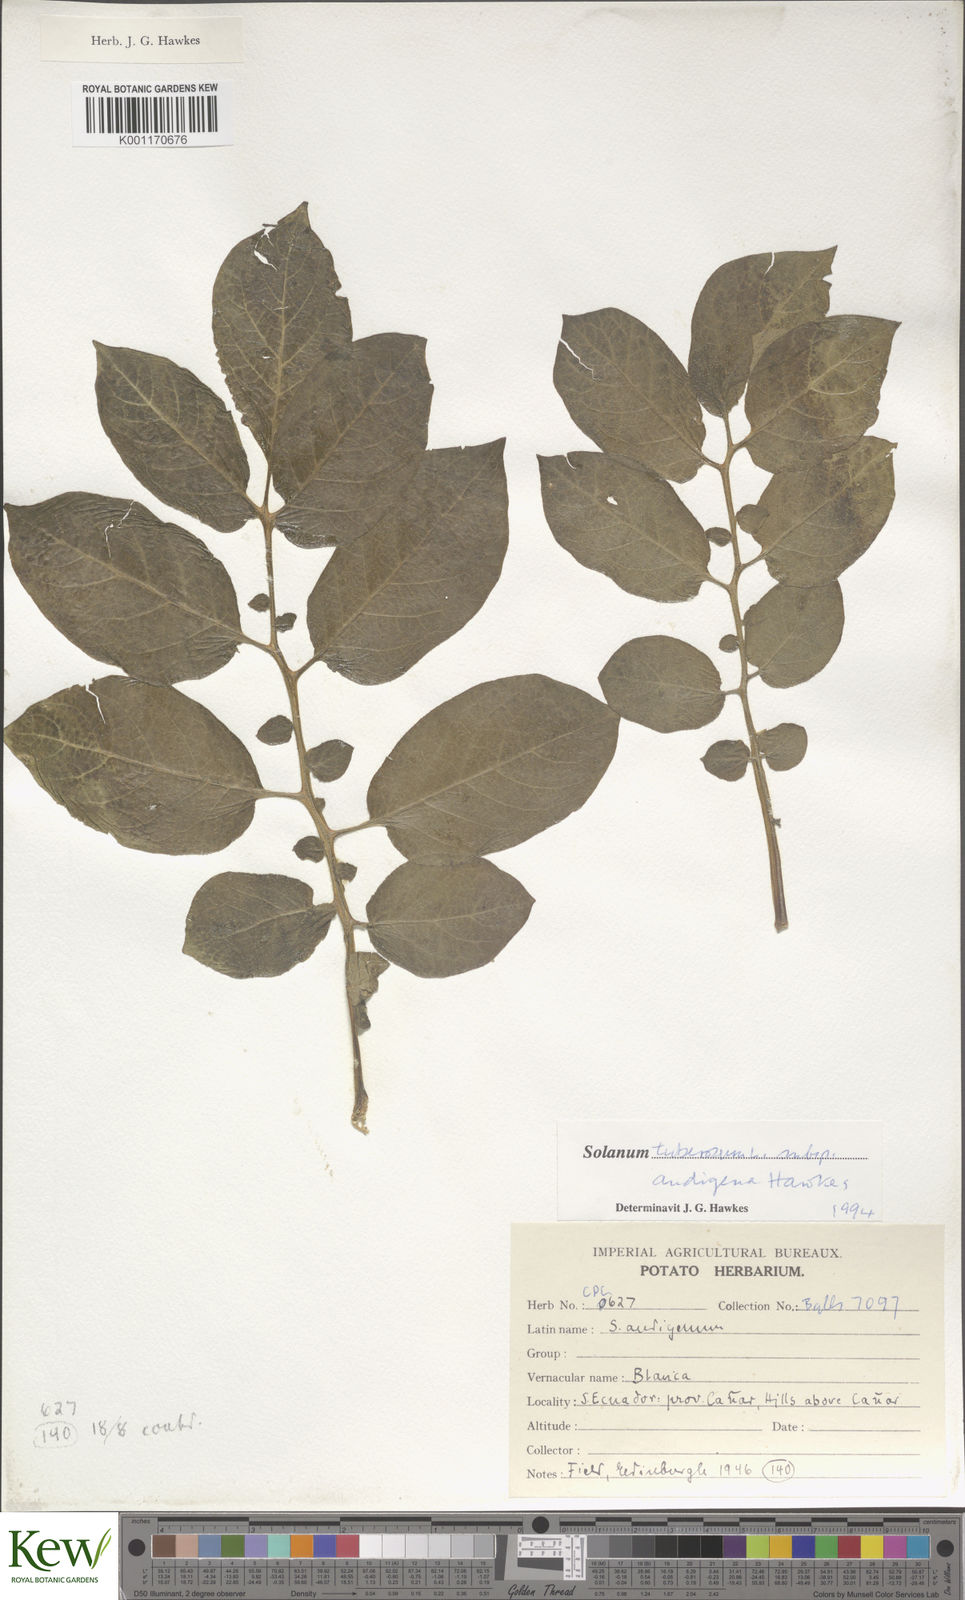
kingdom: Plantae
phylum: Tracheophyta
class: Magnoliopsida
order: Solanales
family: Solanaceae
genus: Solanum
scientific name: Solanum tuberosum
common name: Potato
